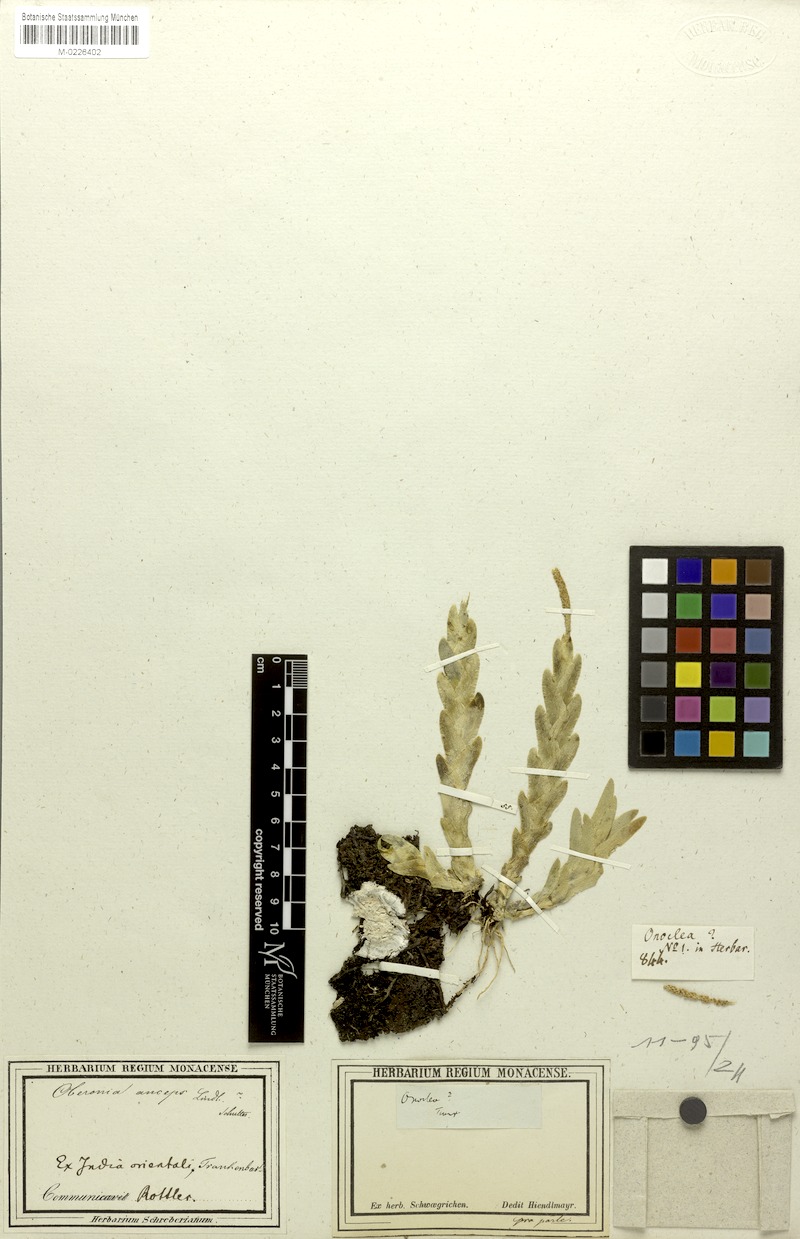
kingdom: Plantae
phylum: Tracheophyta
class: Liliopsida
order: Asparagales
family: Orchidaceae
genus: Oberonia
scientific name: Oberonia lycopodioides
